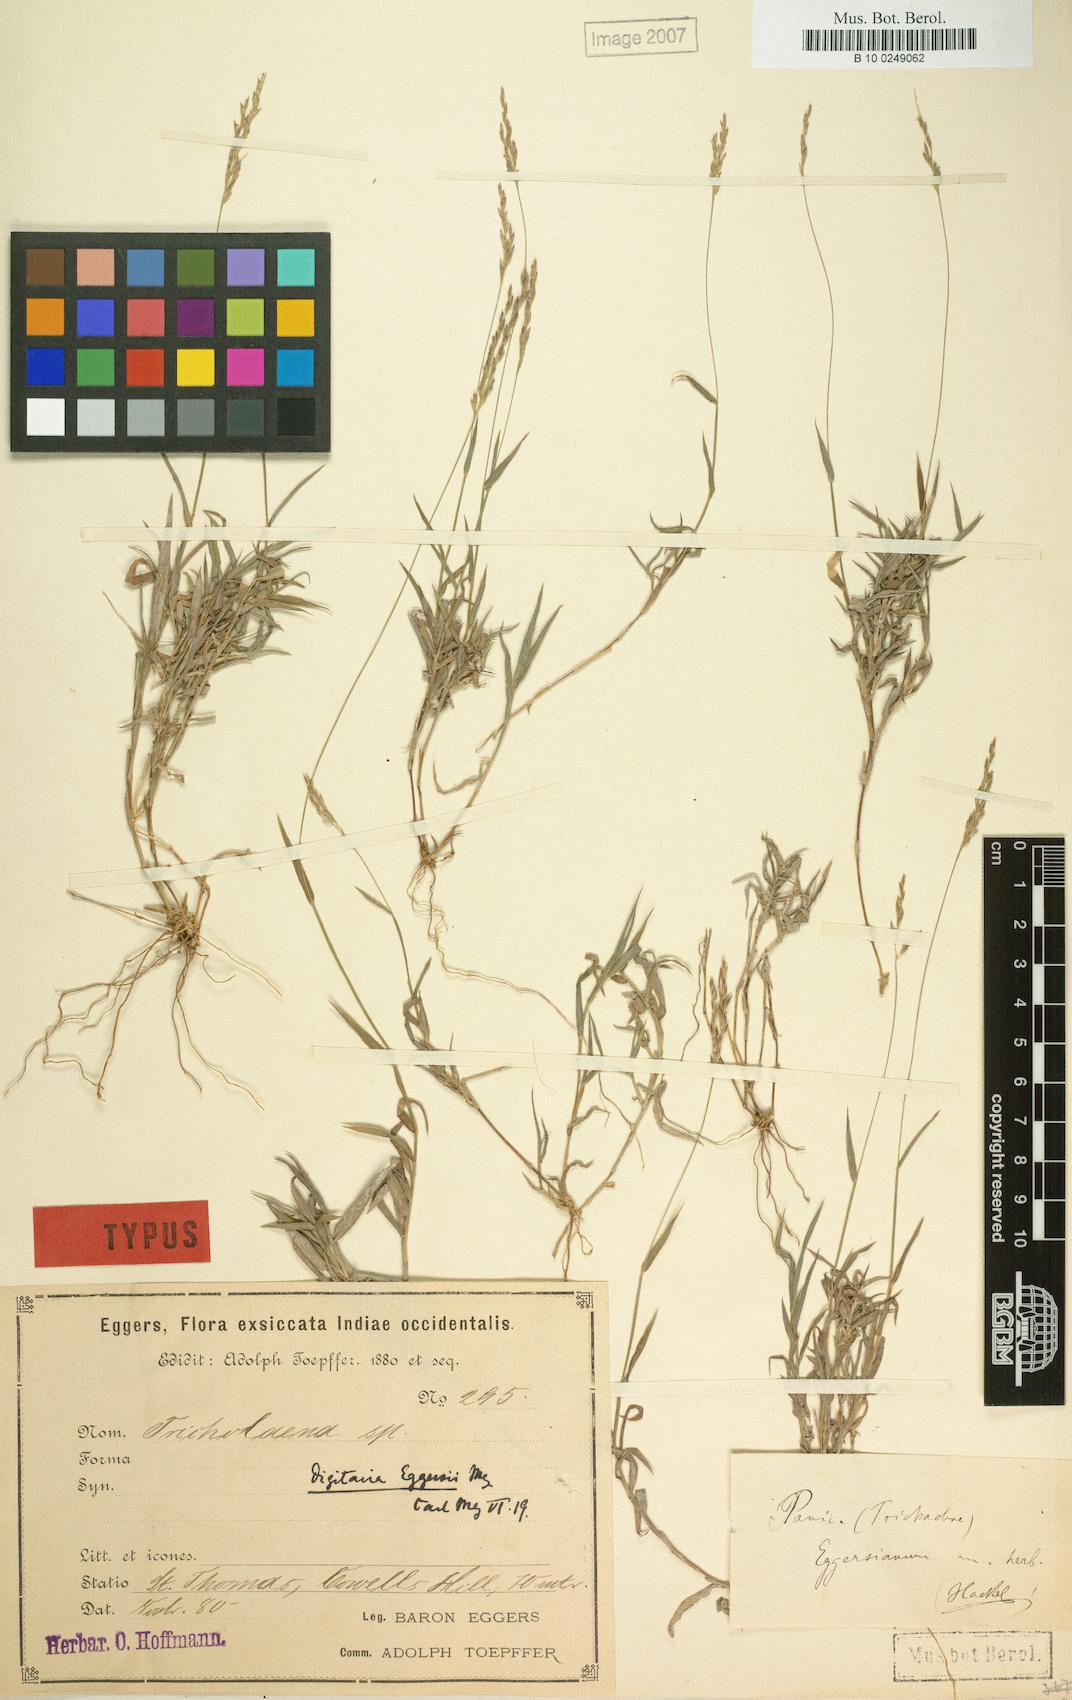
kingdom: Plantae
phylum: Tracheophyta
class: Liliopsida
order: Poales
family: Poaceae
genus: Digitaria
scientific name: Digitaria eggersii
